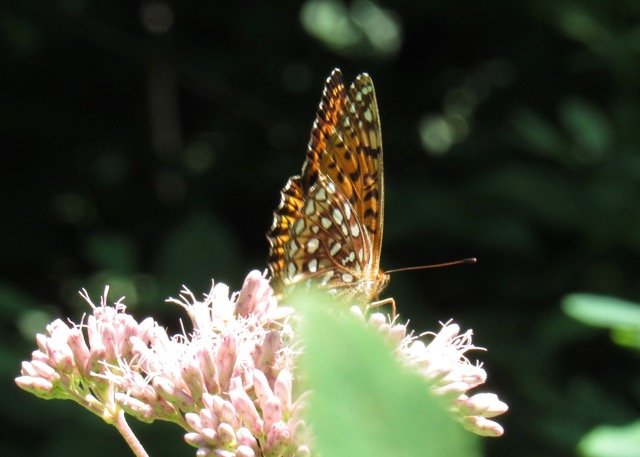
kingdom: Animalia
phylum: Arthropoda
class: Insecta
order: Lepidoptera
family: Nymphalidae
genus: Speyeria
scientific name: Speyeria atlantis
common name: Atlantis Fritillary
